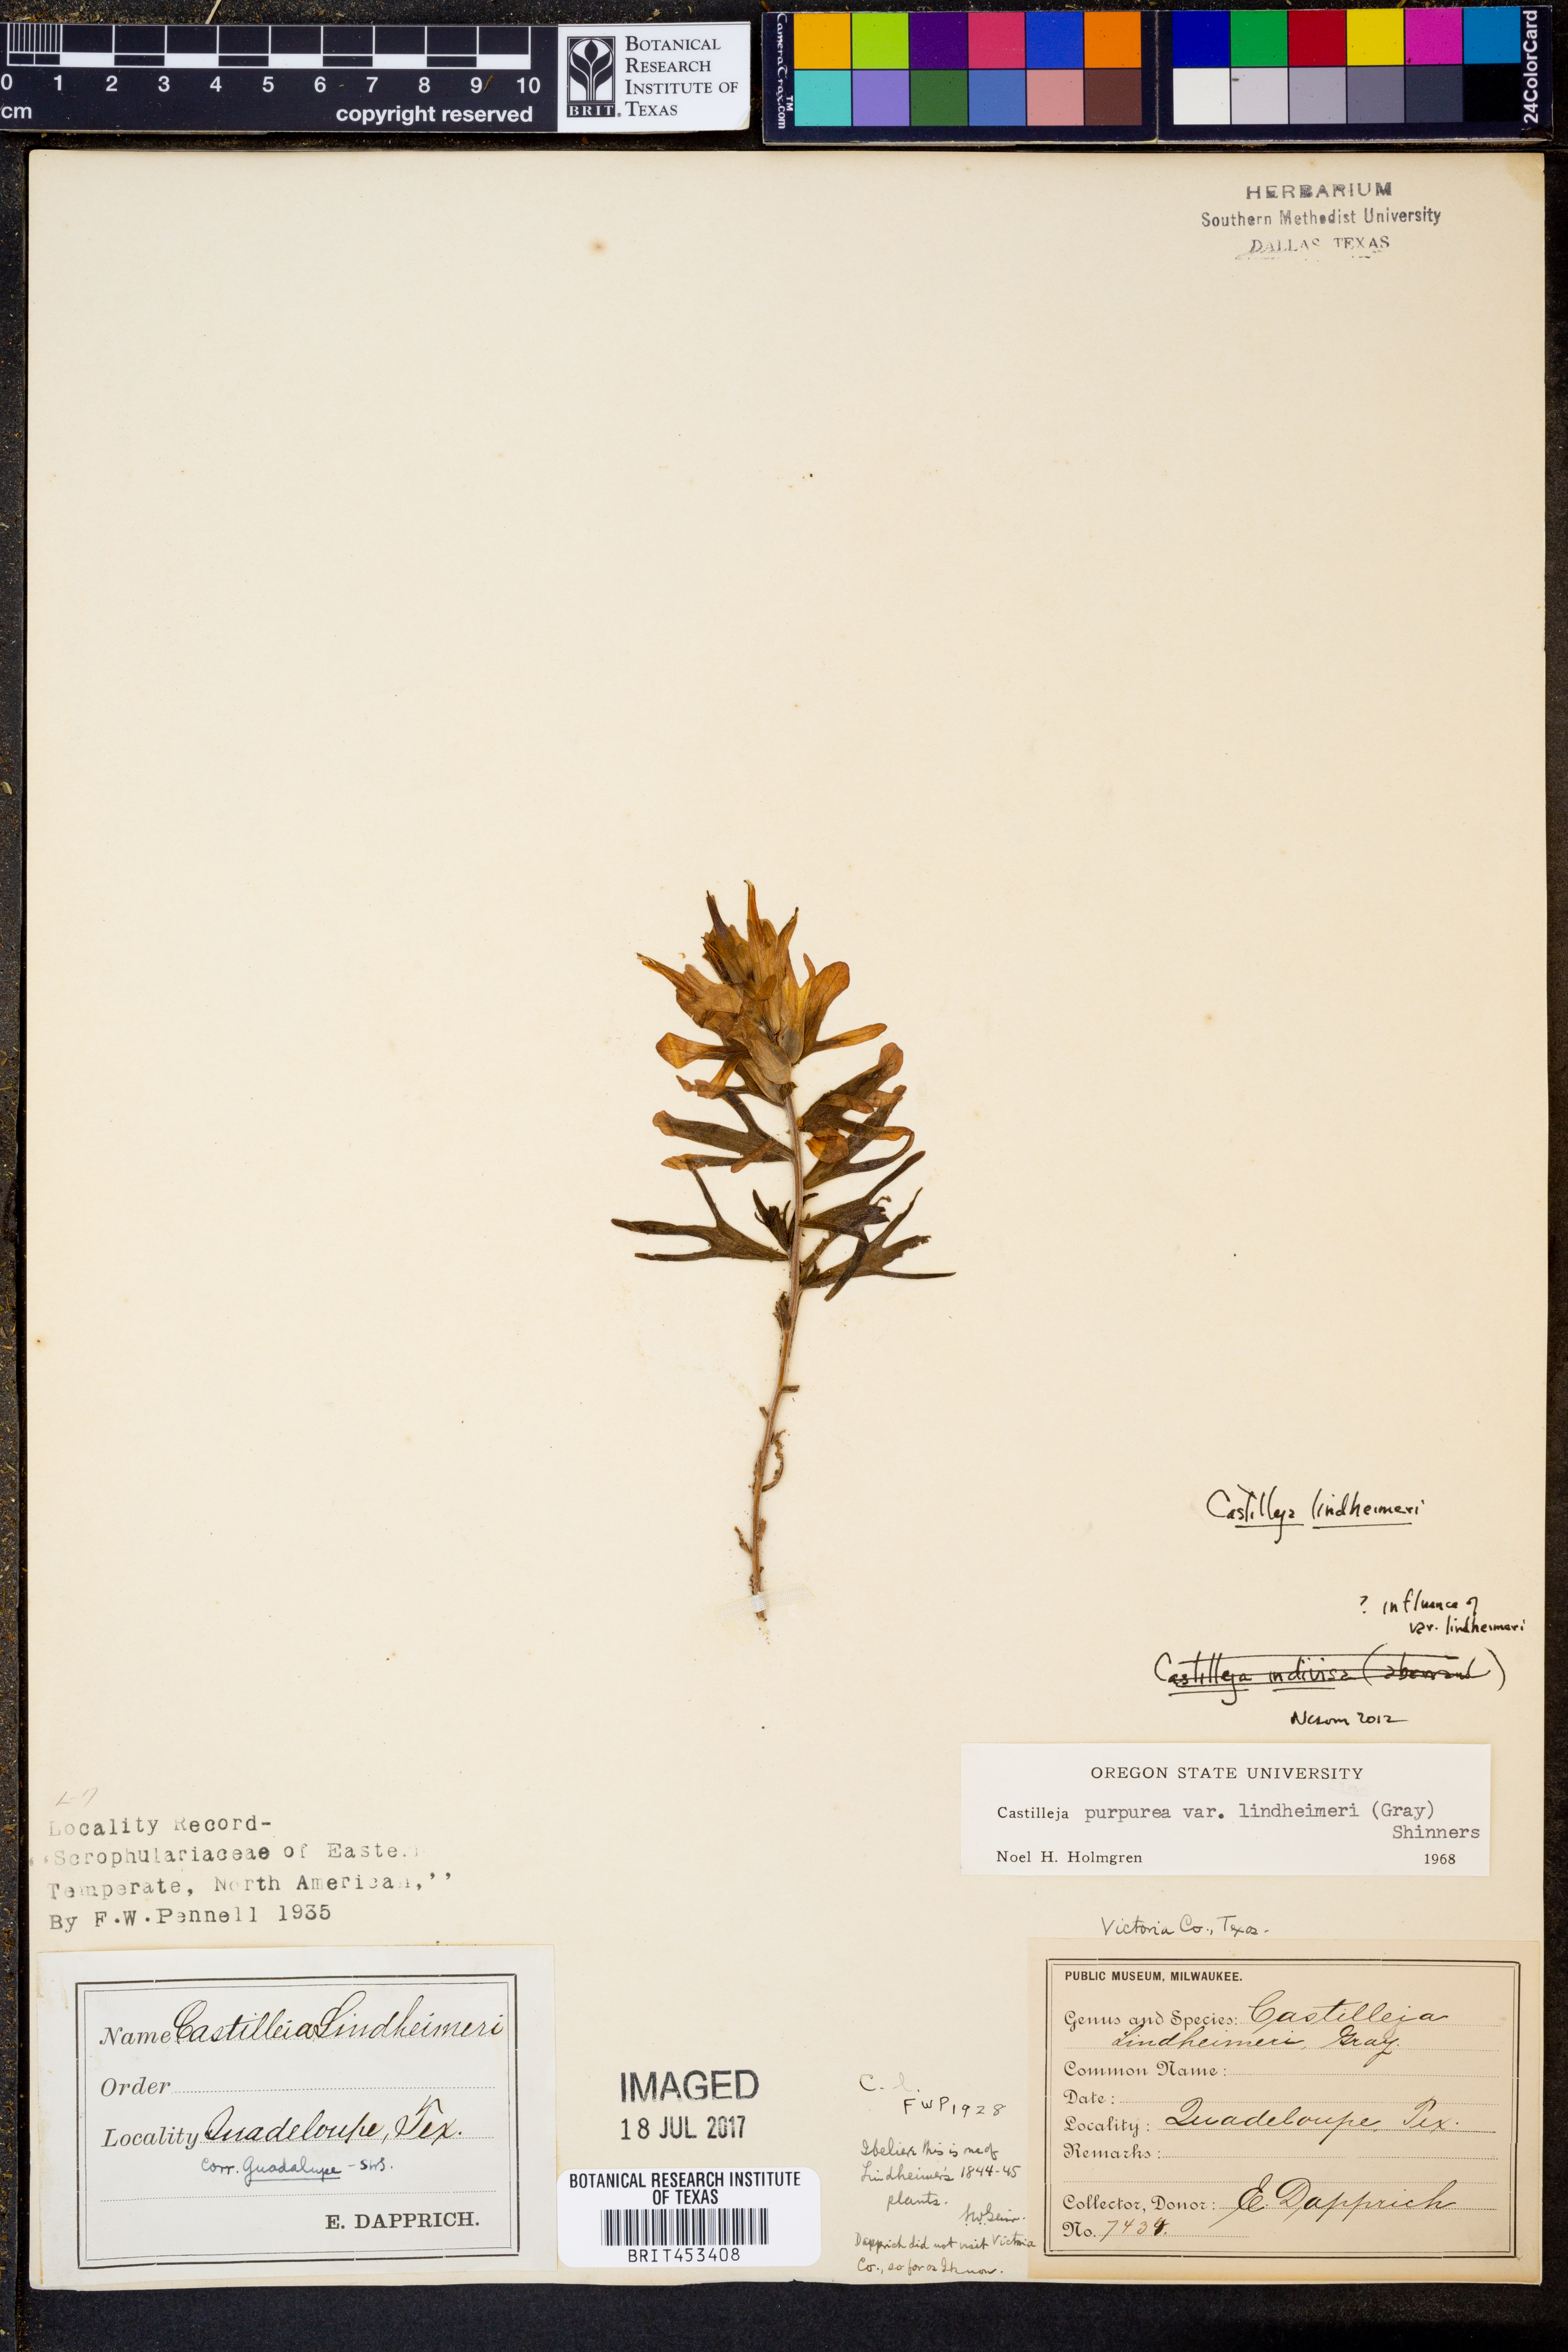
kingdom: Plantae
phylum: Tracheophyta
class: Magnoliopsida
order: Lamiales
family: Orobanchaceae
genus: Castilleja
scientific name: Castilleja lindheimeri
